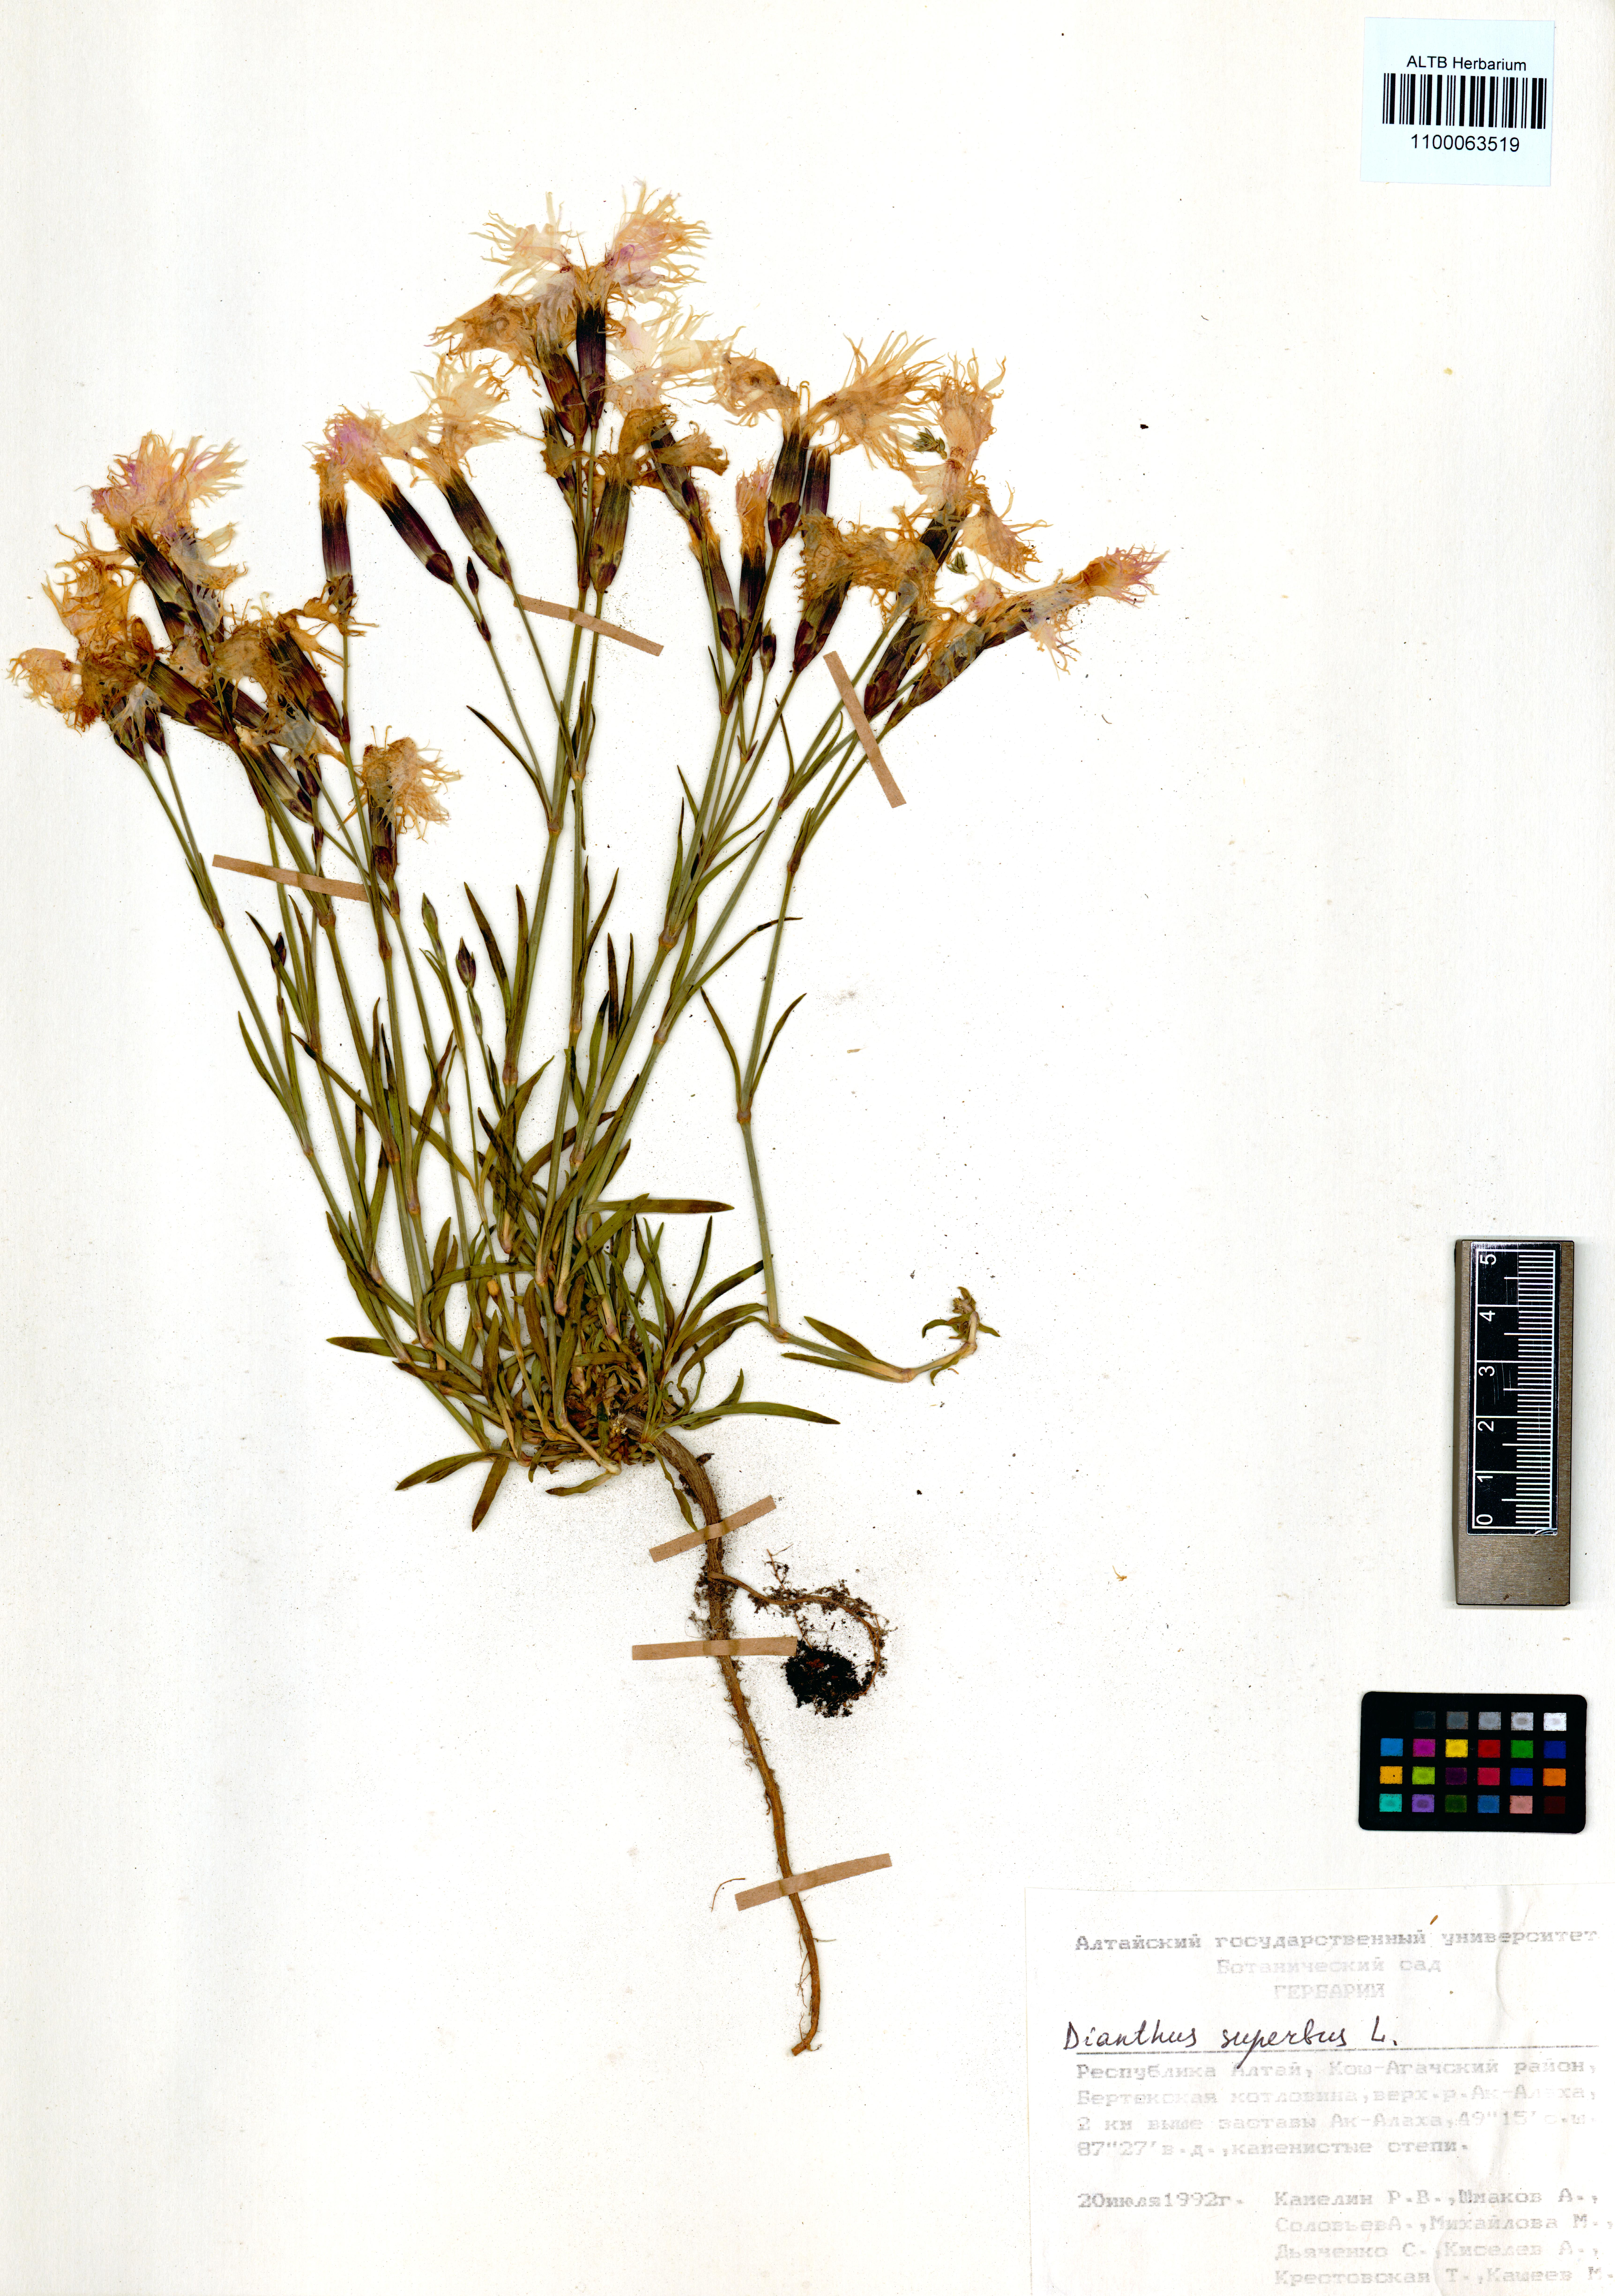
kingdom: Plantae
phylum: Tracheophyta
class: Magnoliopsida
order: Caryophyllales
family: Caryophyllaceae
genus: Dianthus
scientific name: Dianthus superbus
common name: Fringed pink
